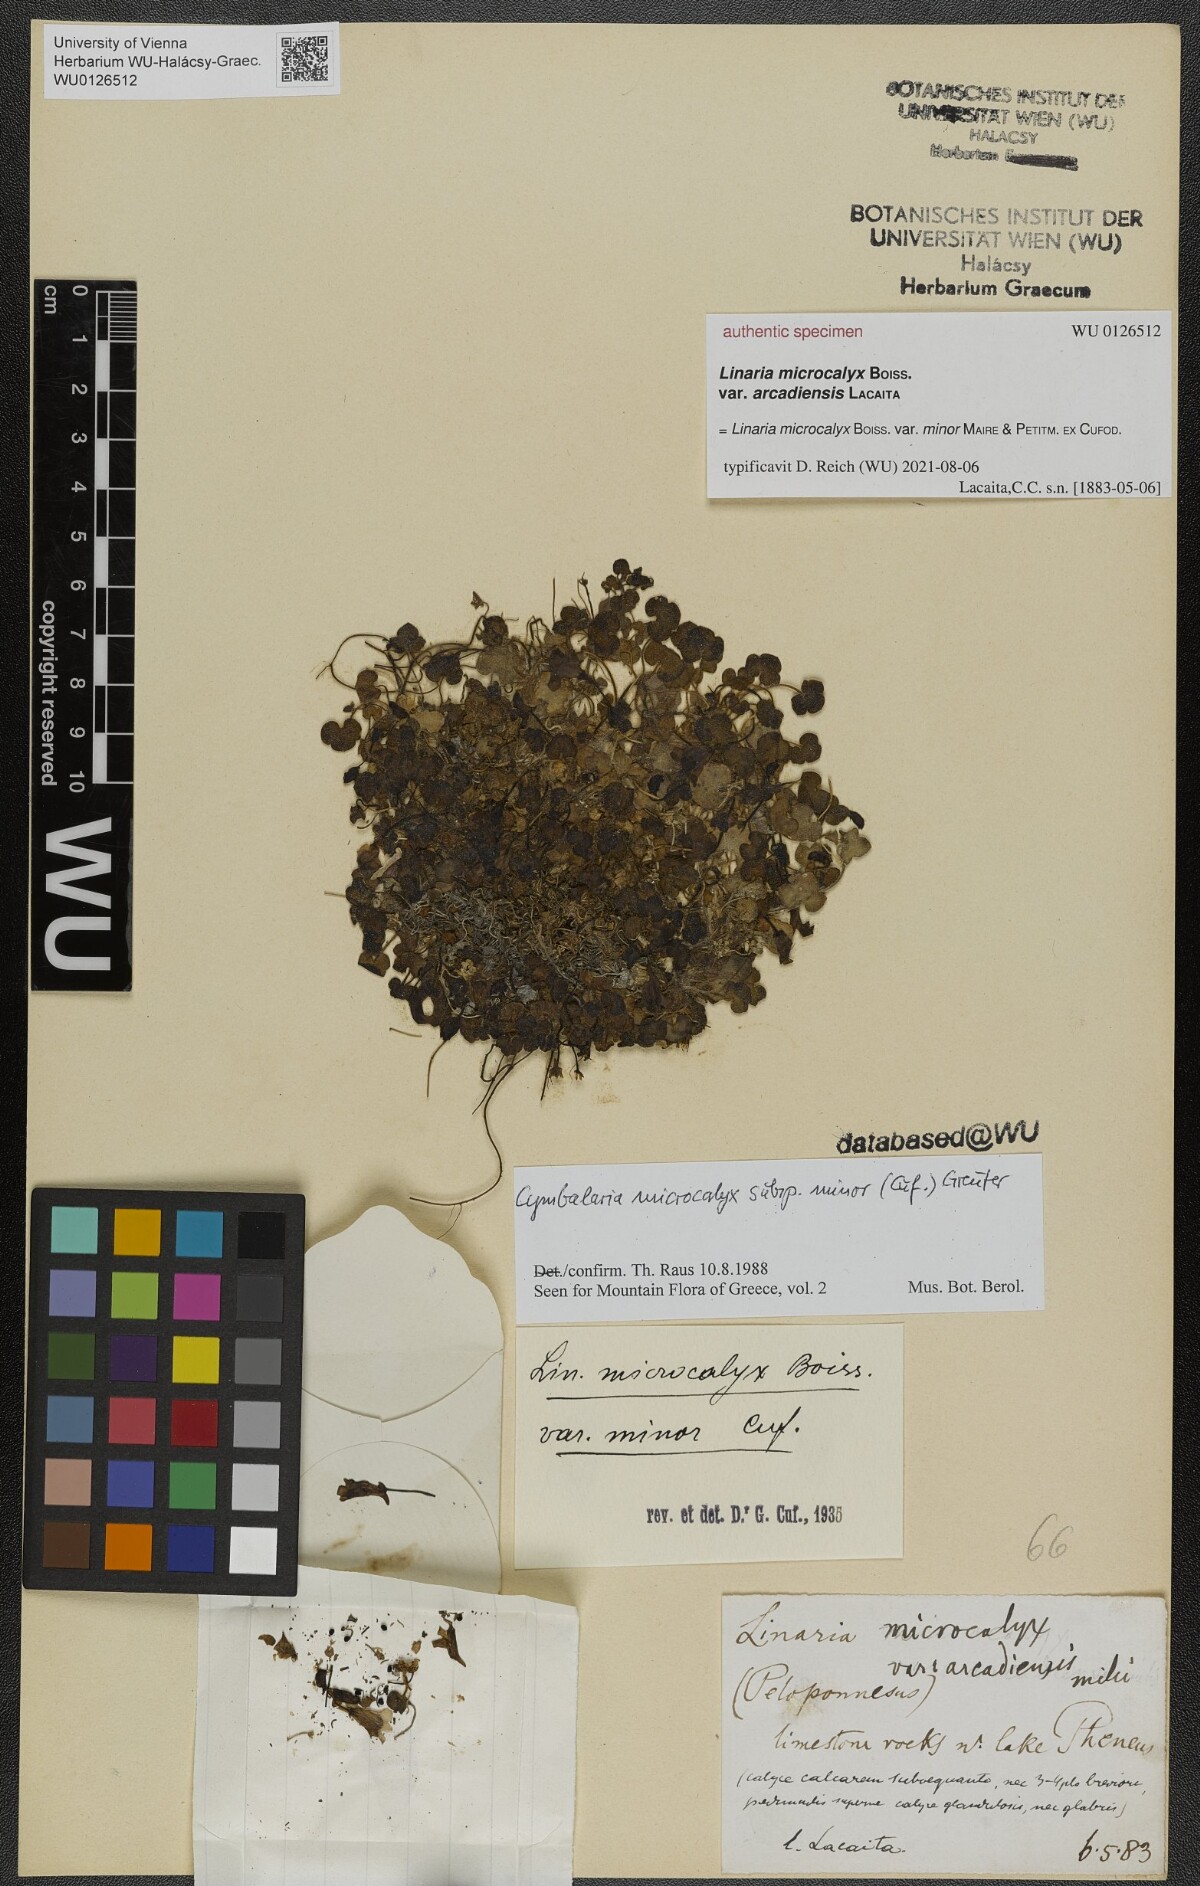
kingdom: Plantae
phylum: Tracheophyta
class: Magnoliopsida
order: Lamiales
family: Plantaginaceae
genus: Cymbalaria
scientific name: Cymbalaria minor
